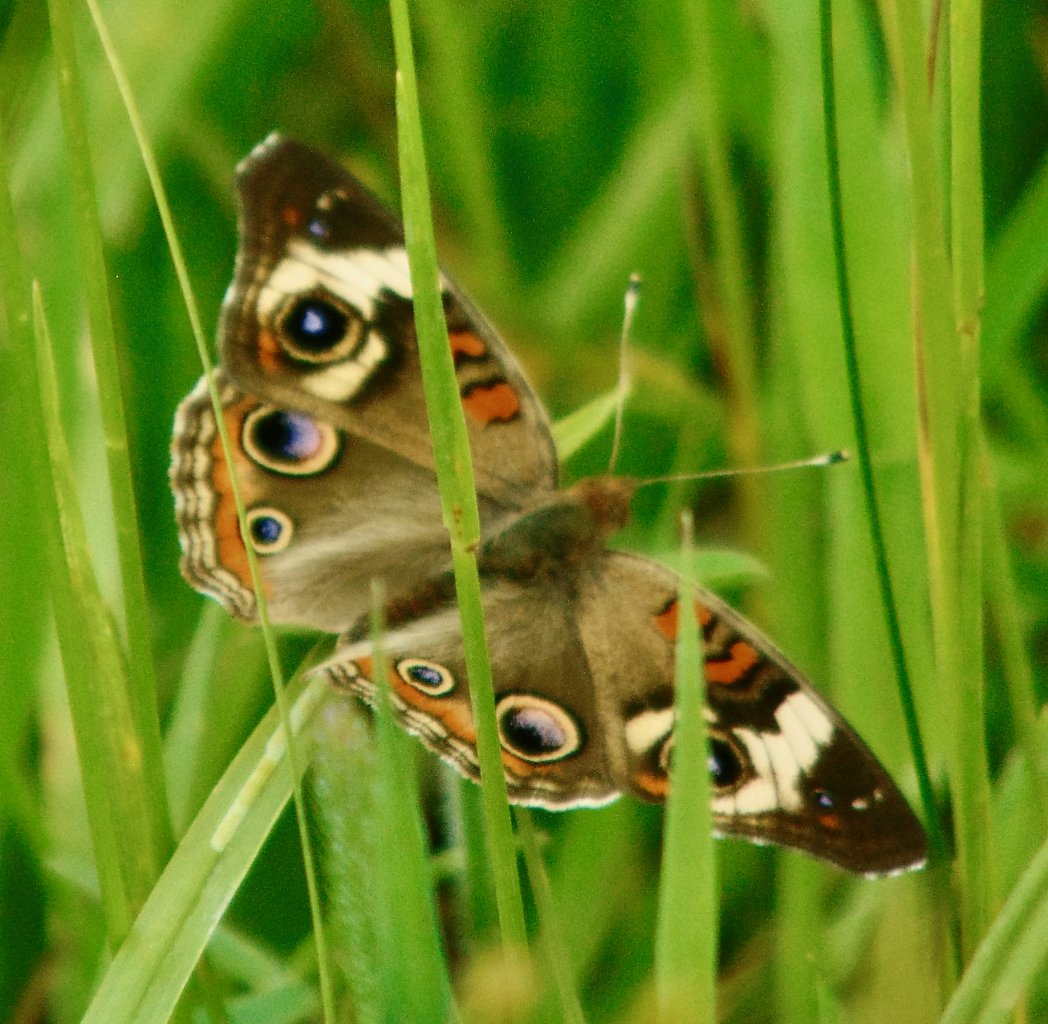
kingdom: Animalia
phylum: Arthropoda
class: Insecta
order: Lepidoptera
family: Nymphalidae
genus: Junonia
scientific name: Junonia coenia
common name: Common Buckeye
